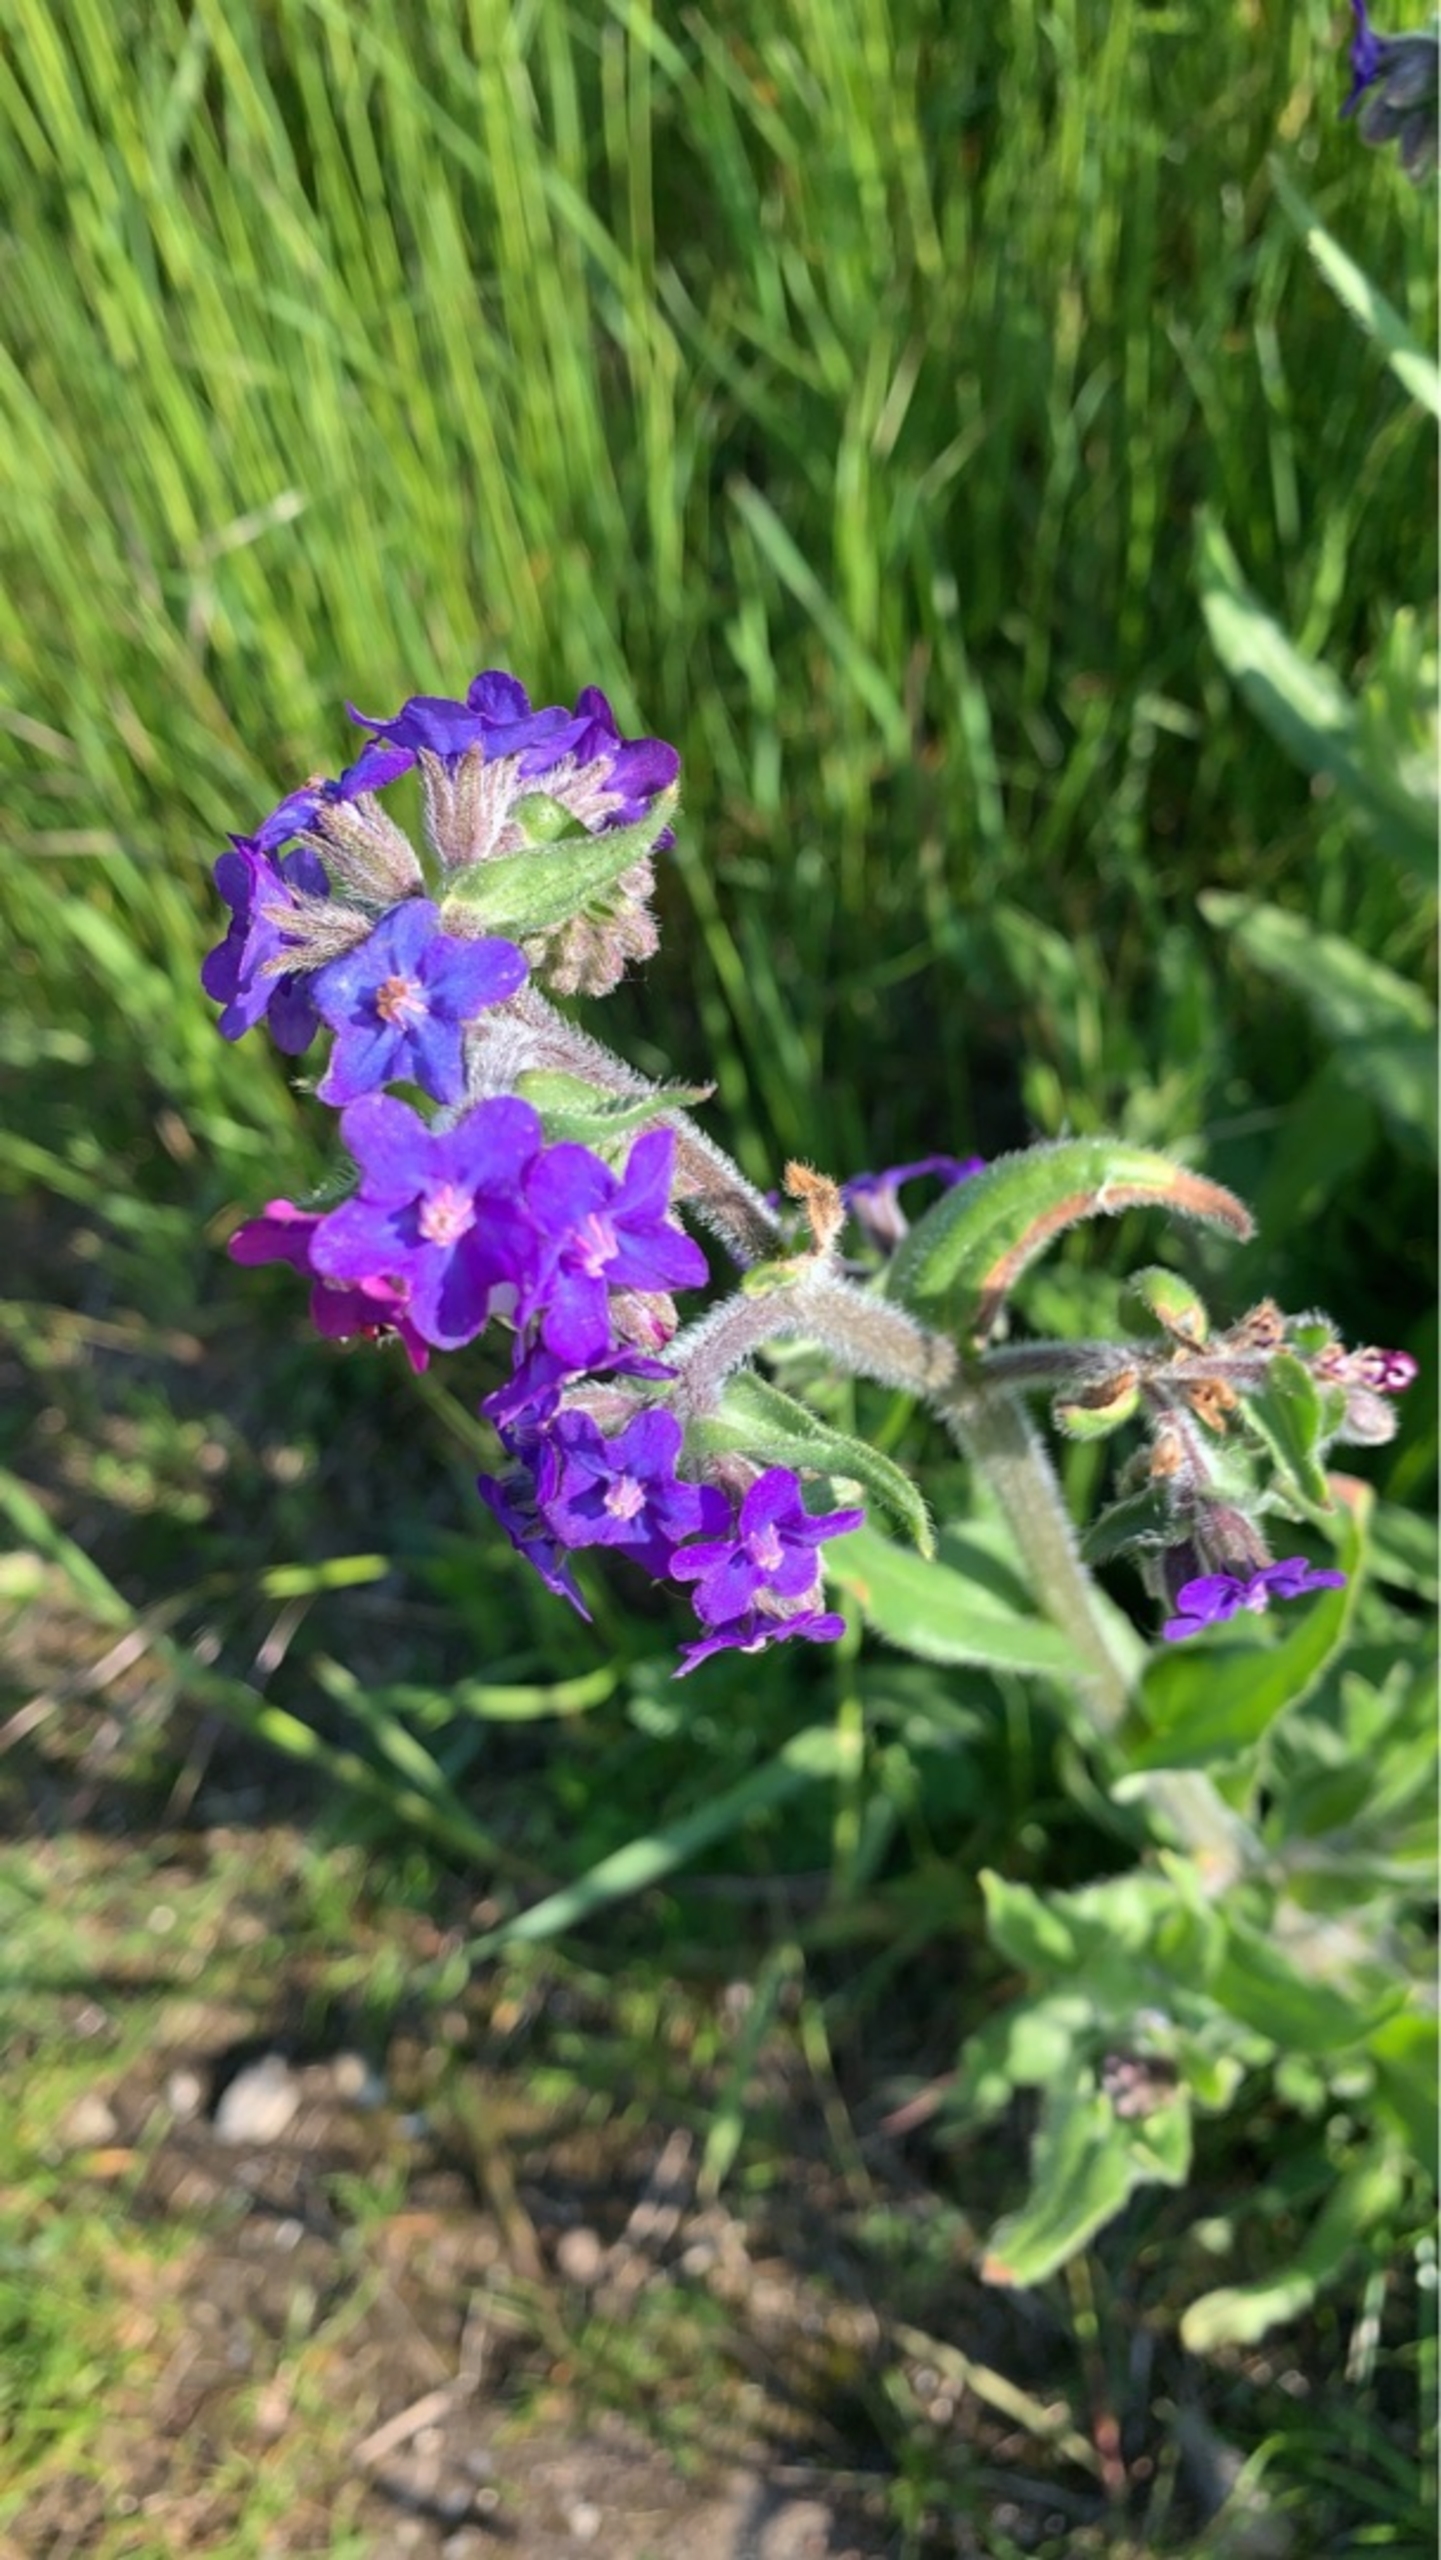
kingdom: Plantae
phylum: Tracheophyta
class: Magnoliopsida
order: Boraginales
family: Boraginaceae
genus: Anchusa
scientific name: Anchusa officinalis
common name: Læge-oksetunge
